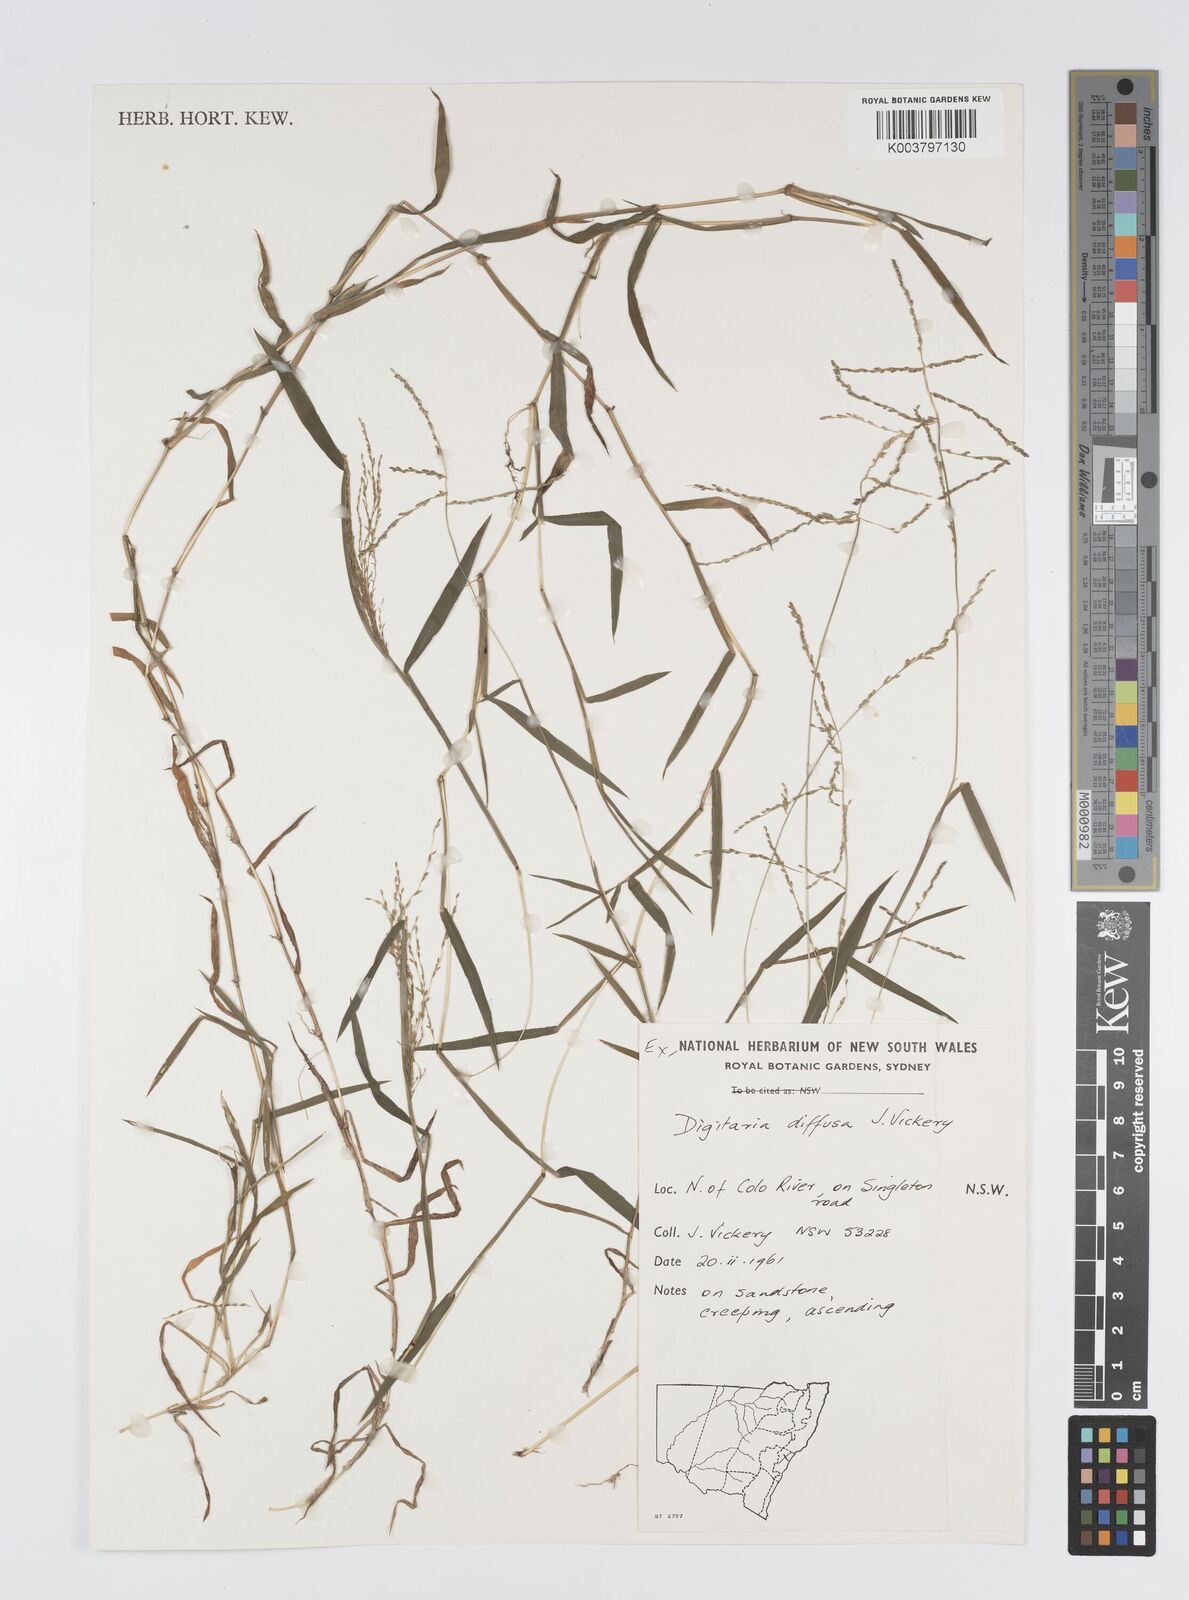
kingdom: Plantae
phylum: Tracheophyta
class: Liliopsida
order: Poales
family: Poaceae
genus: Digitaria
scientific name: Digitaria diffusa
